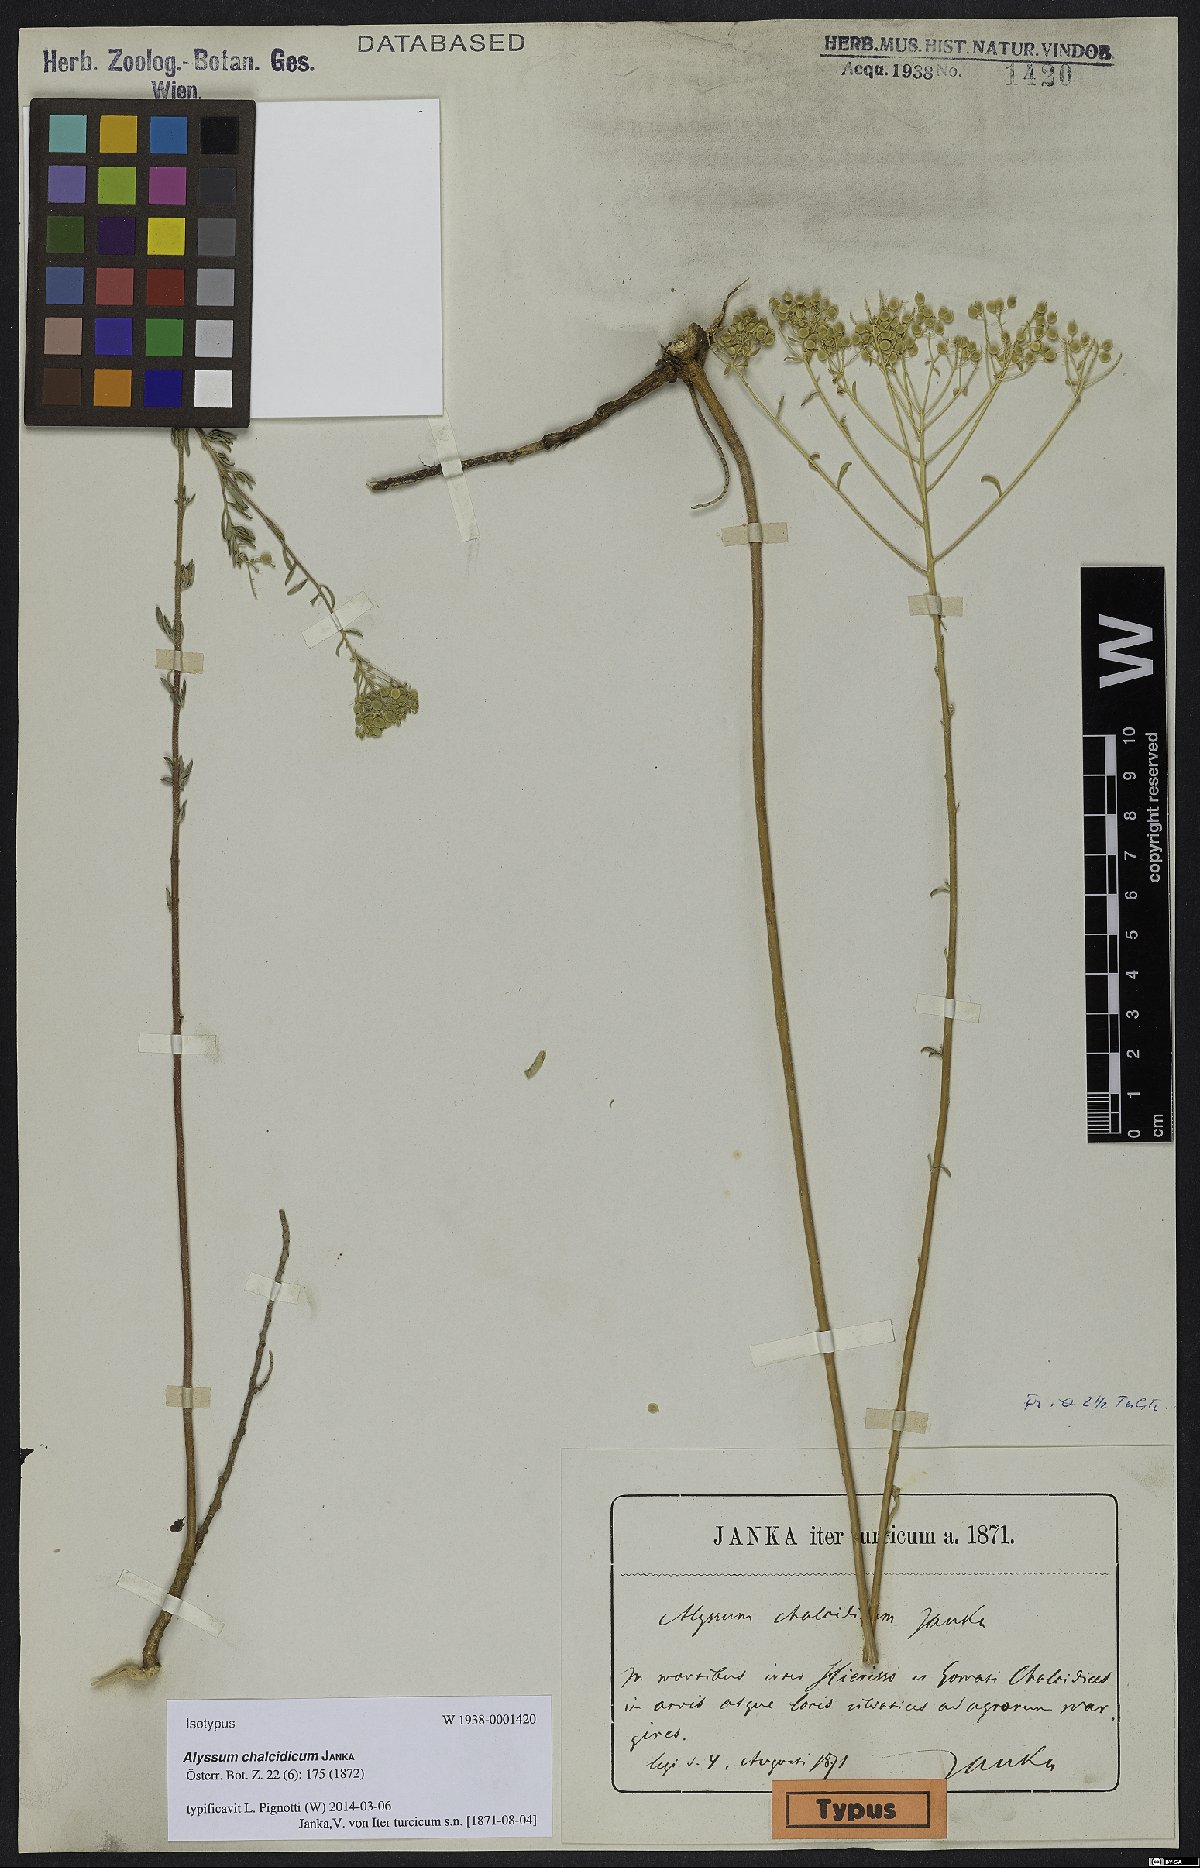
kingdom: Plantae
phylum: Tracheophyta
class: Magnoliopsida
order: Brassicales
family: Brassicaceae
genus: Odontarrhena
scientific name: Odontarrhena chalcidica
